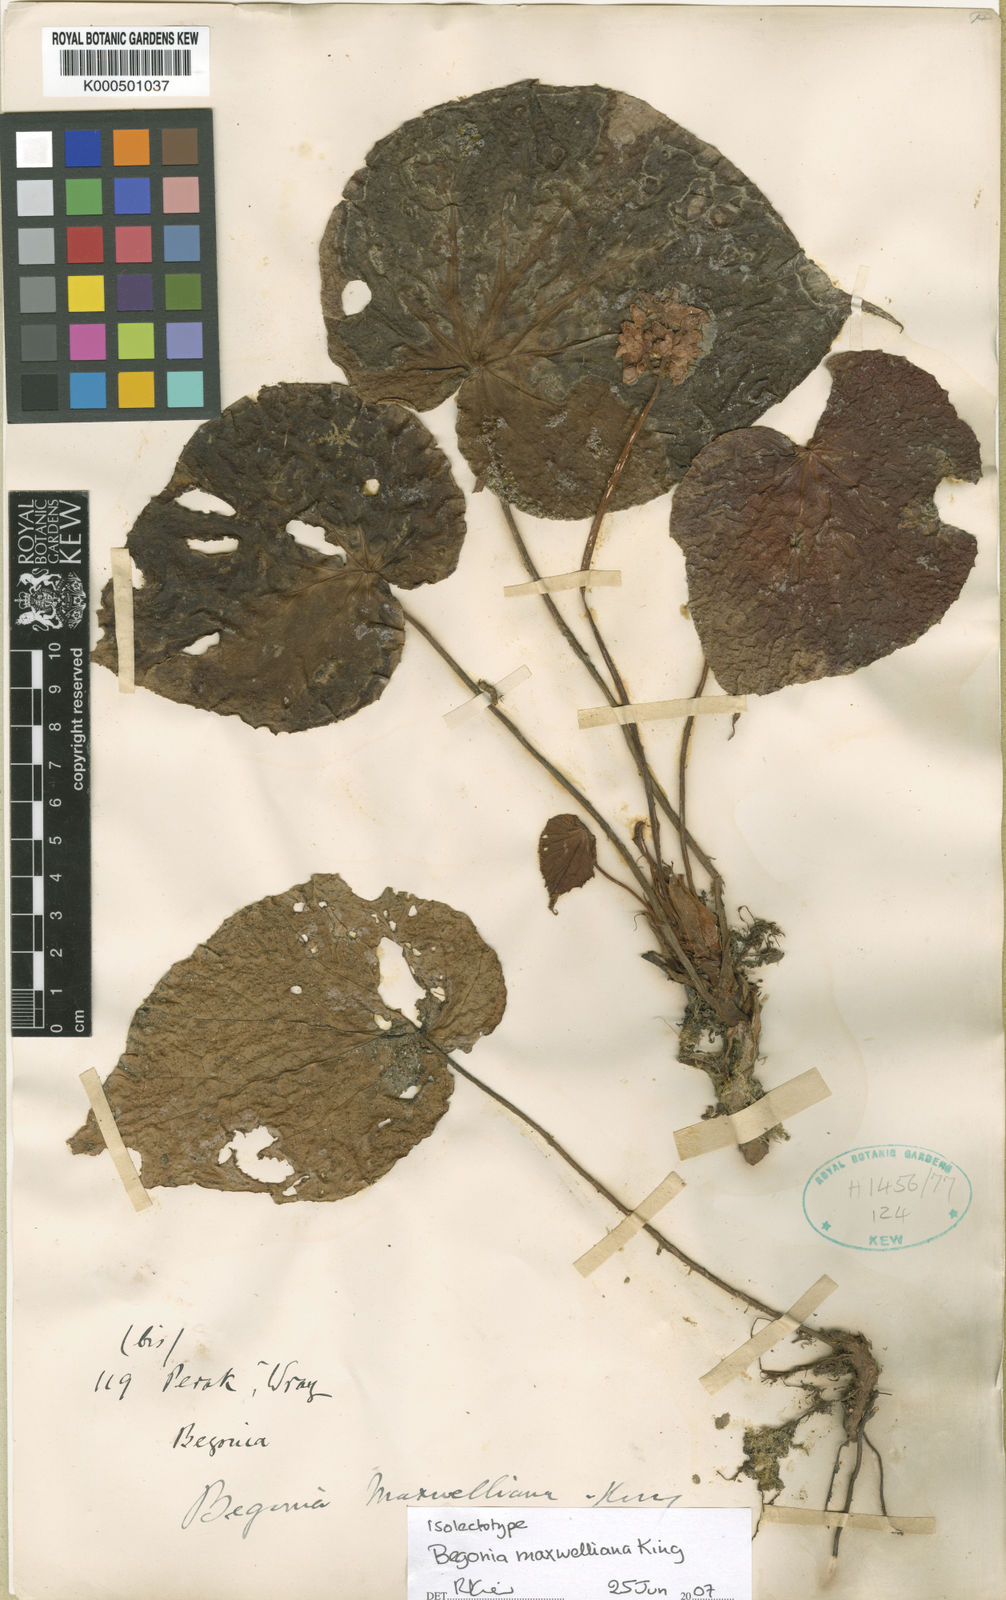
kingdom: Plantae
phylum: Tracheophyta
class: Magnoliopsida
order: Cucurbitales
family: Begoniaceae
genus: Begonia
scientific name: Begonia maxwelliana
